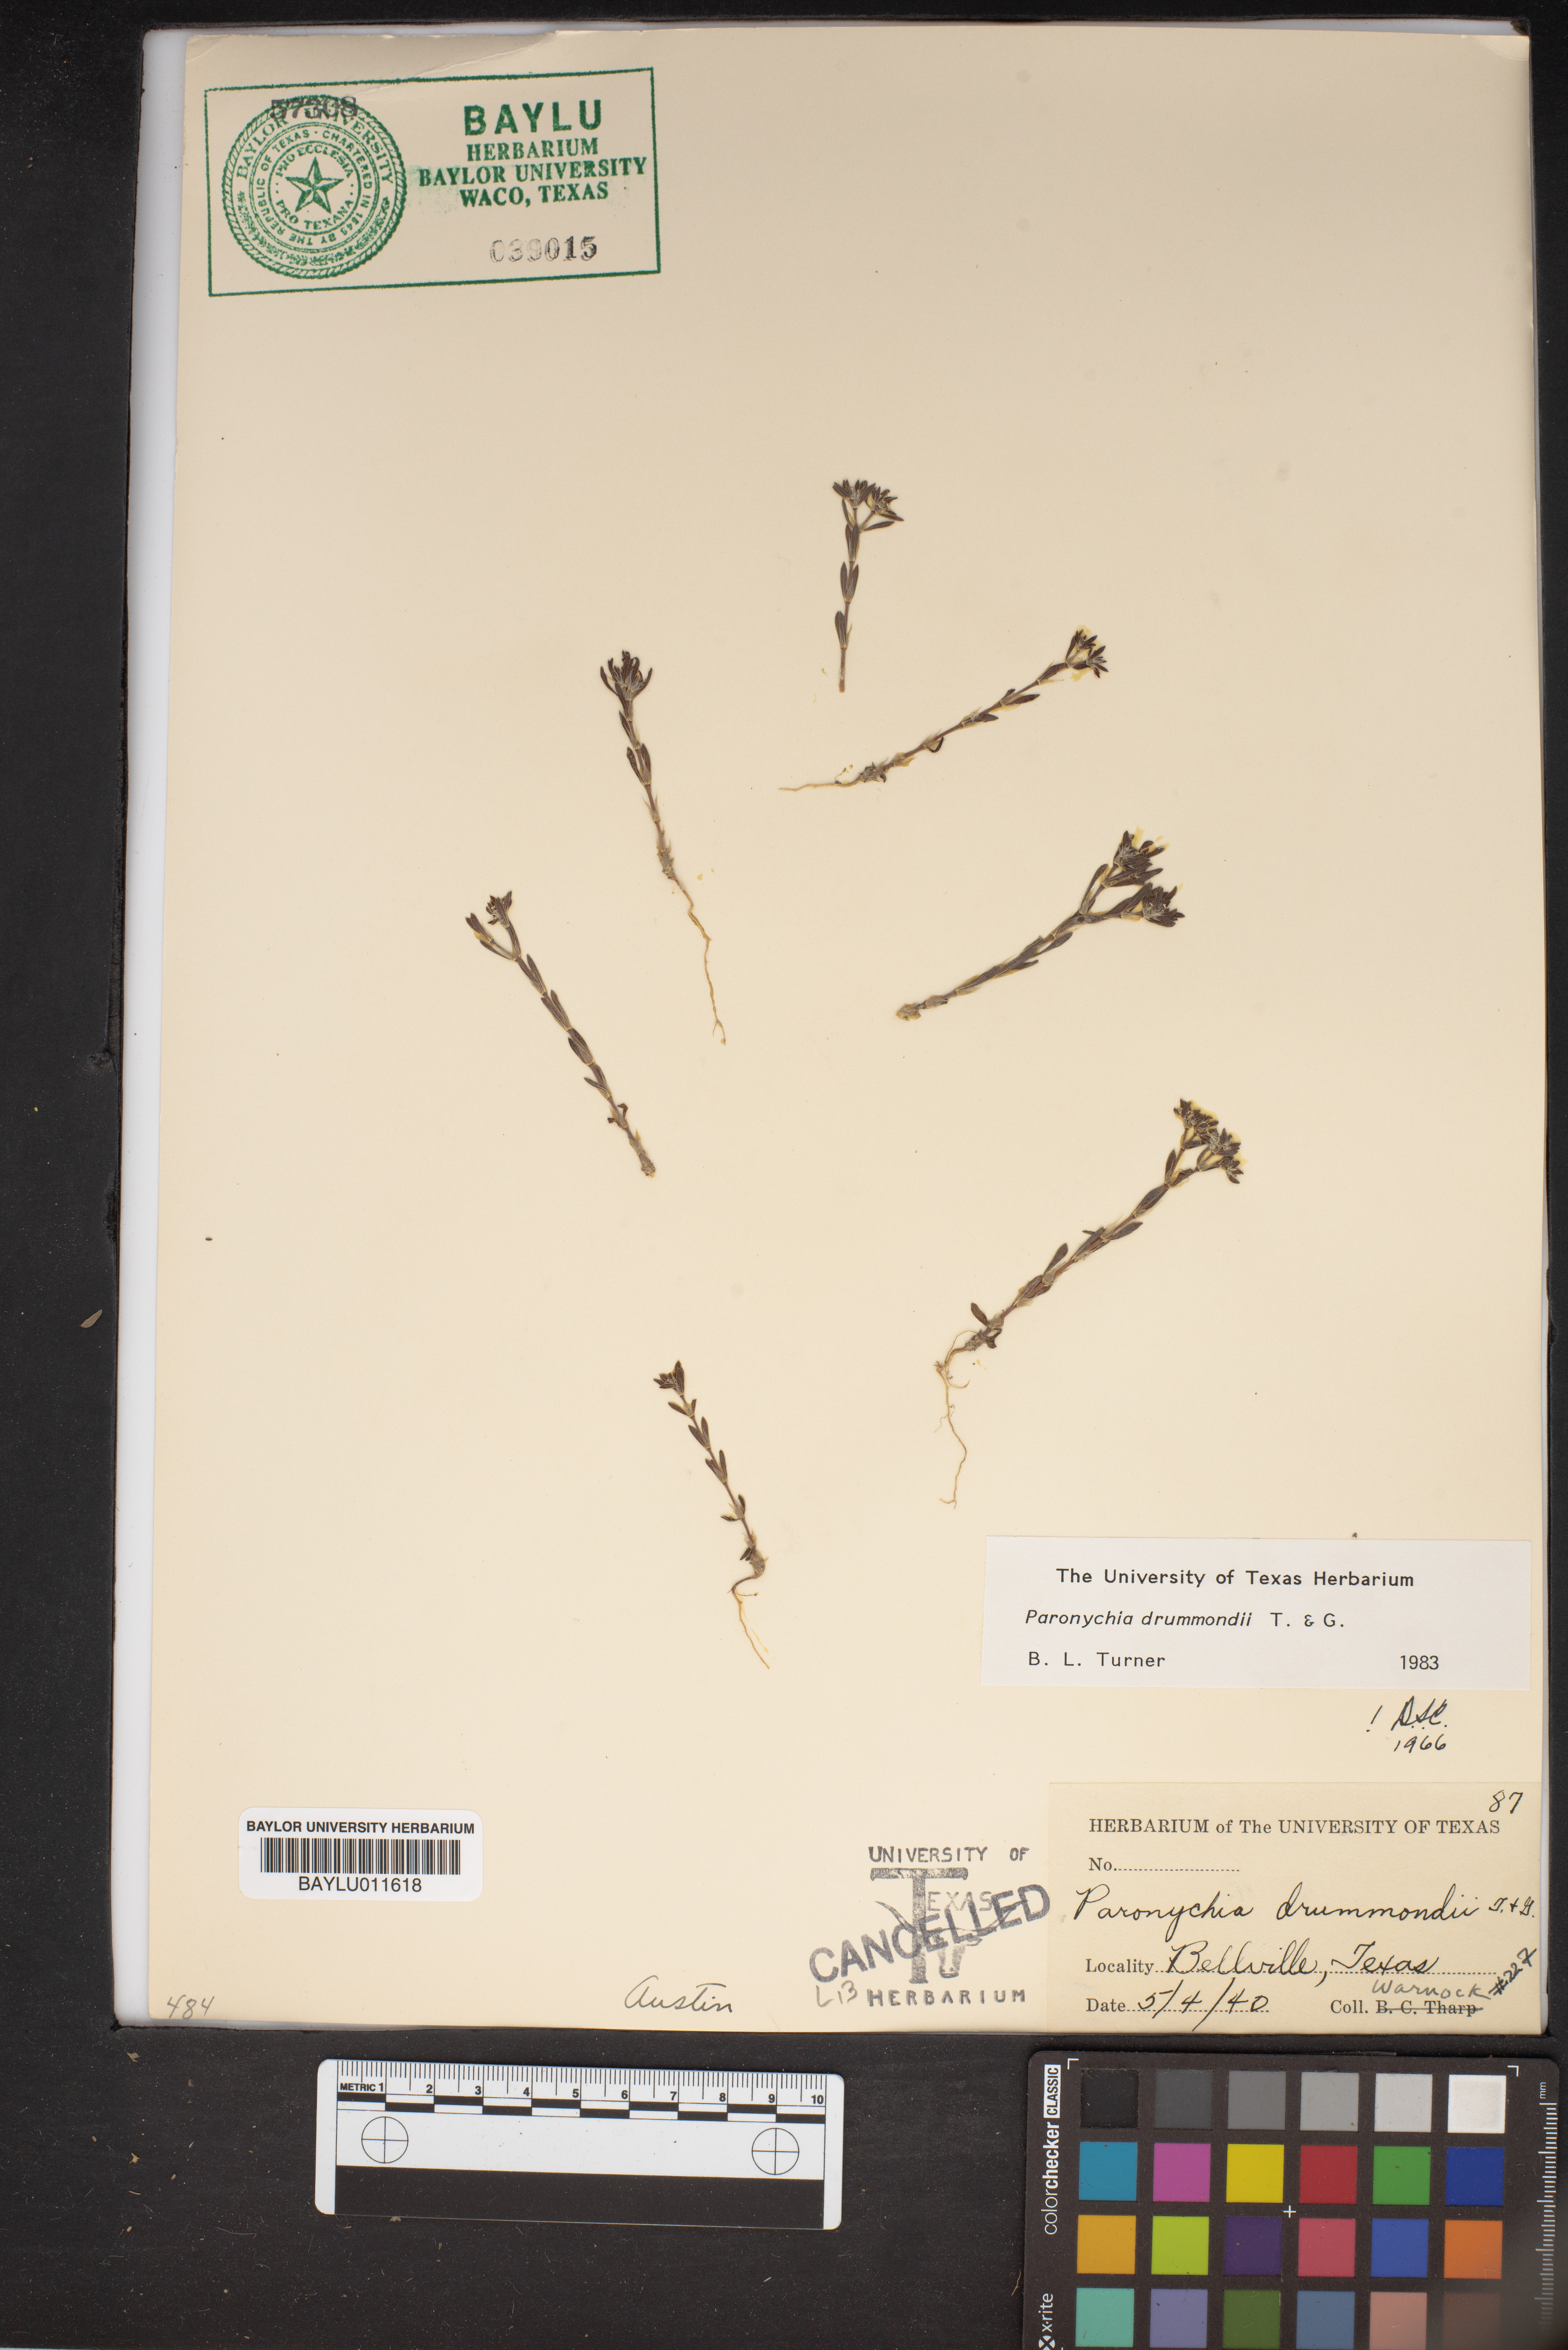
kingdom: Plantae
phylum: Tracheophyta
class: Magnoliopsida
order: Caryophyllales
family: Caryophyllaceae
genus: Paronychia
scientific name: Paronychia drummondii
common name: Drummond's nailwort
